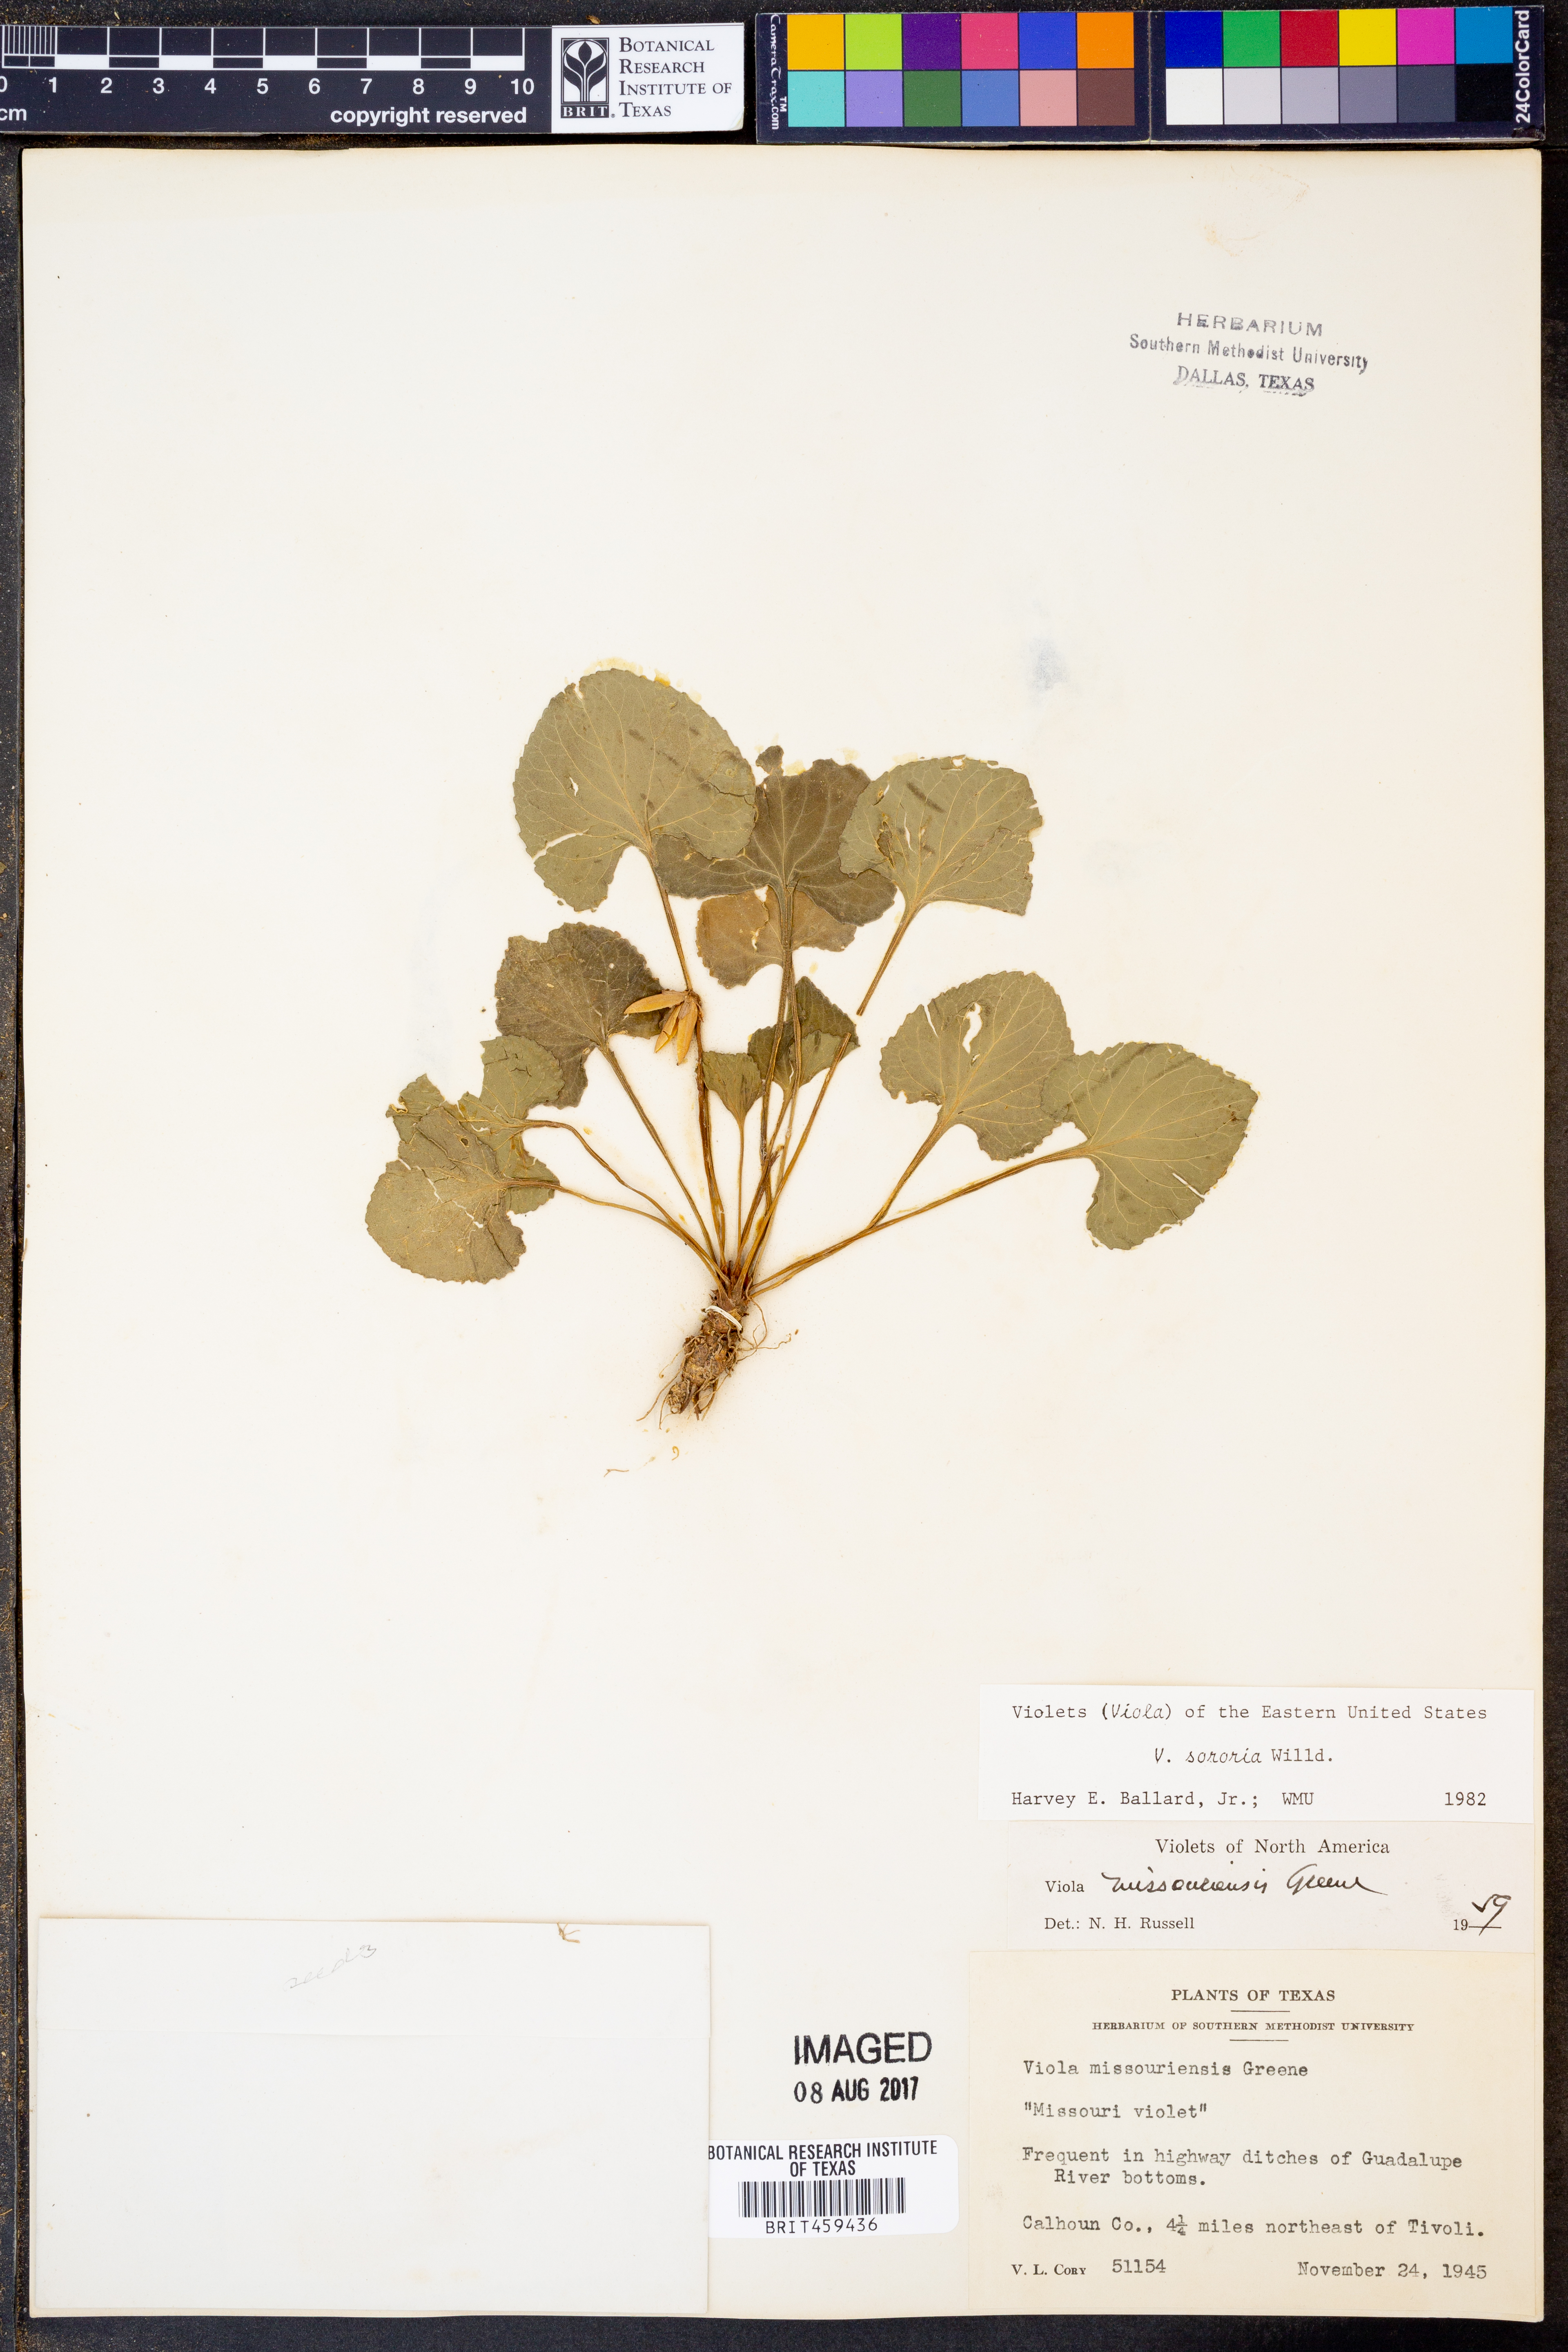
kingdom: Plantae
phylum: Tracheophyta
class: Magnoliopsida
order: Malpighiales
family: Violaceae
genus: Viola
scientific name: Viola sororia
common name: Dooryard violet
